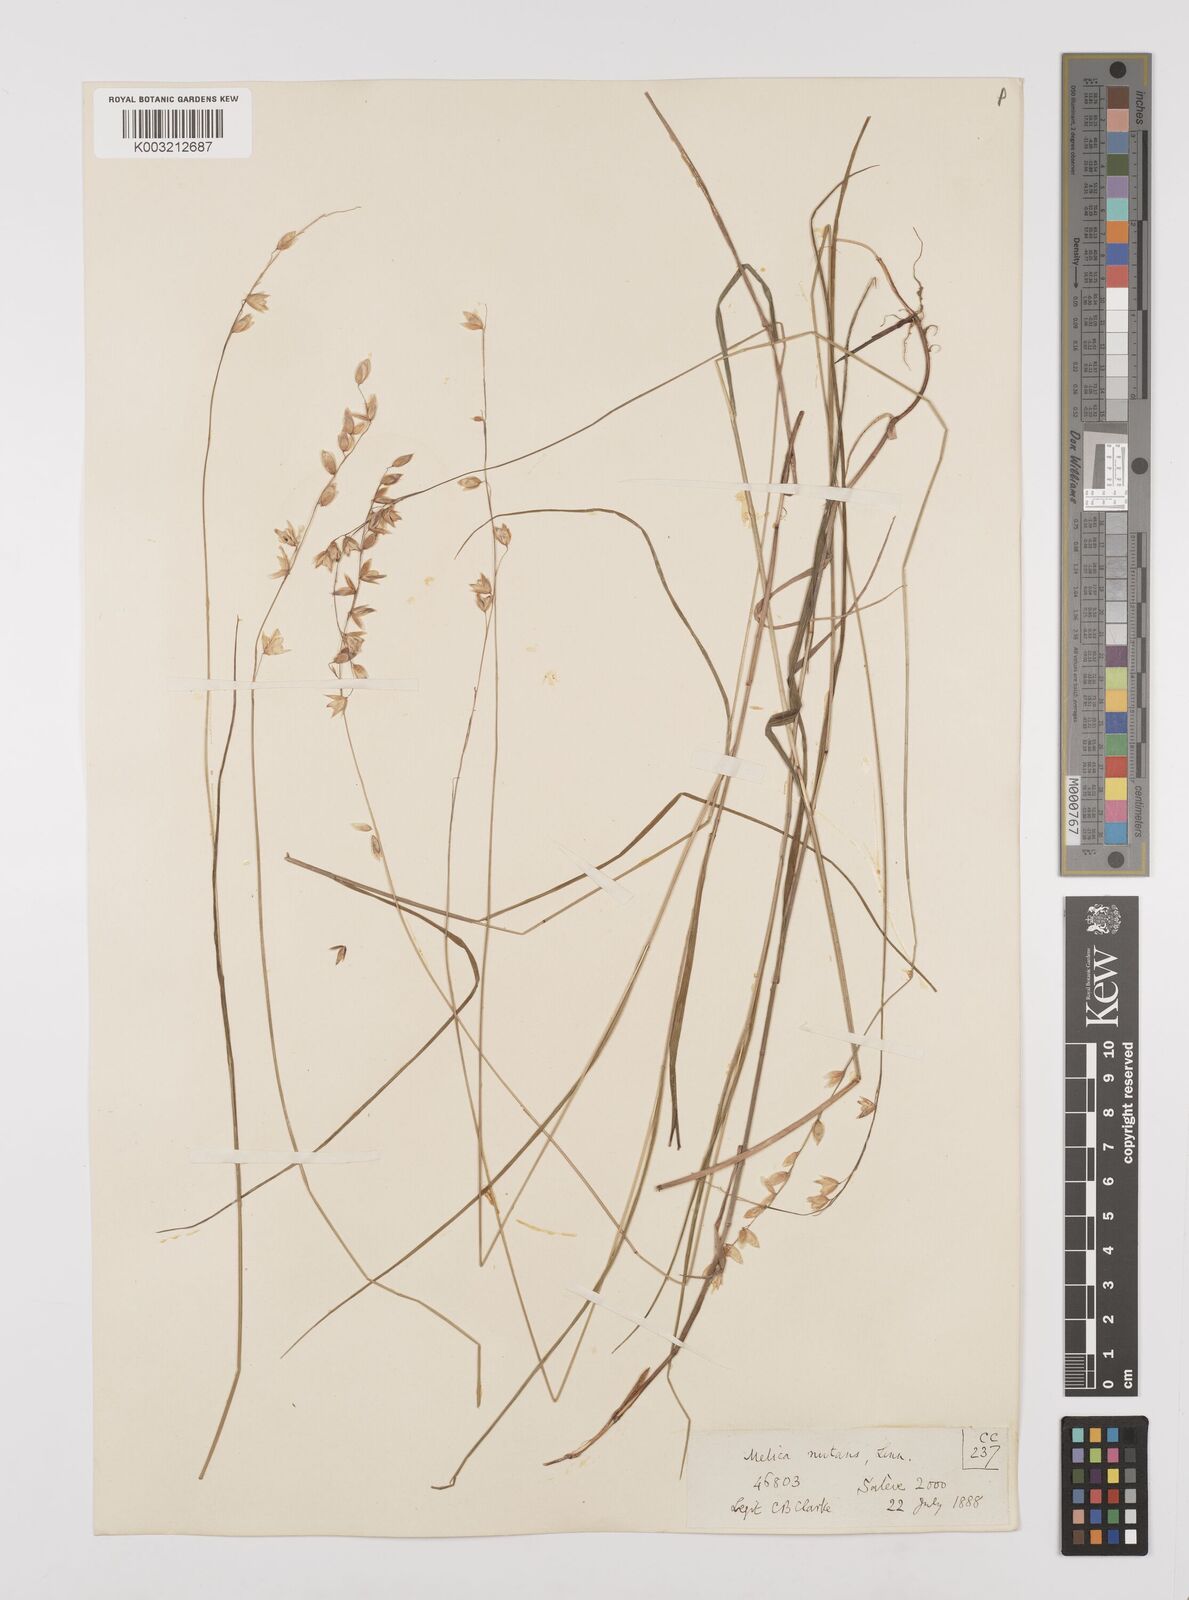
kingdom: Plantae
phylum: Tracheophyta
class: Liliopsida
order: Poales
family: Poaceae
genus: Melica
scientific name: Melica nutans
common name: Mountain melick
